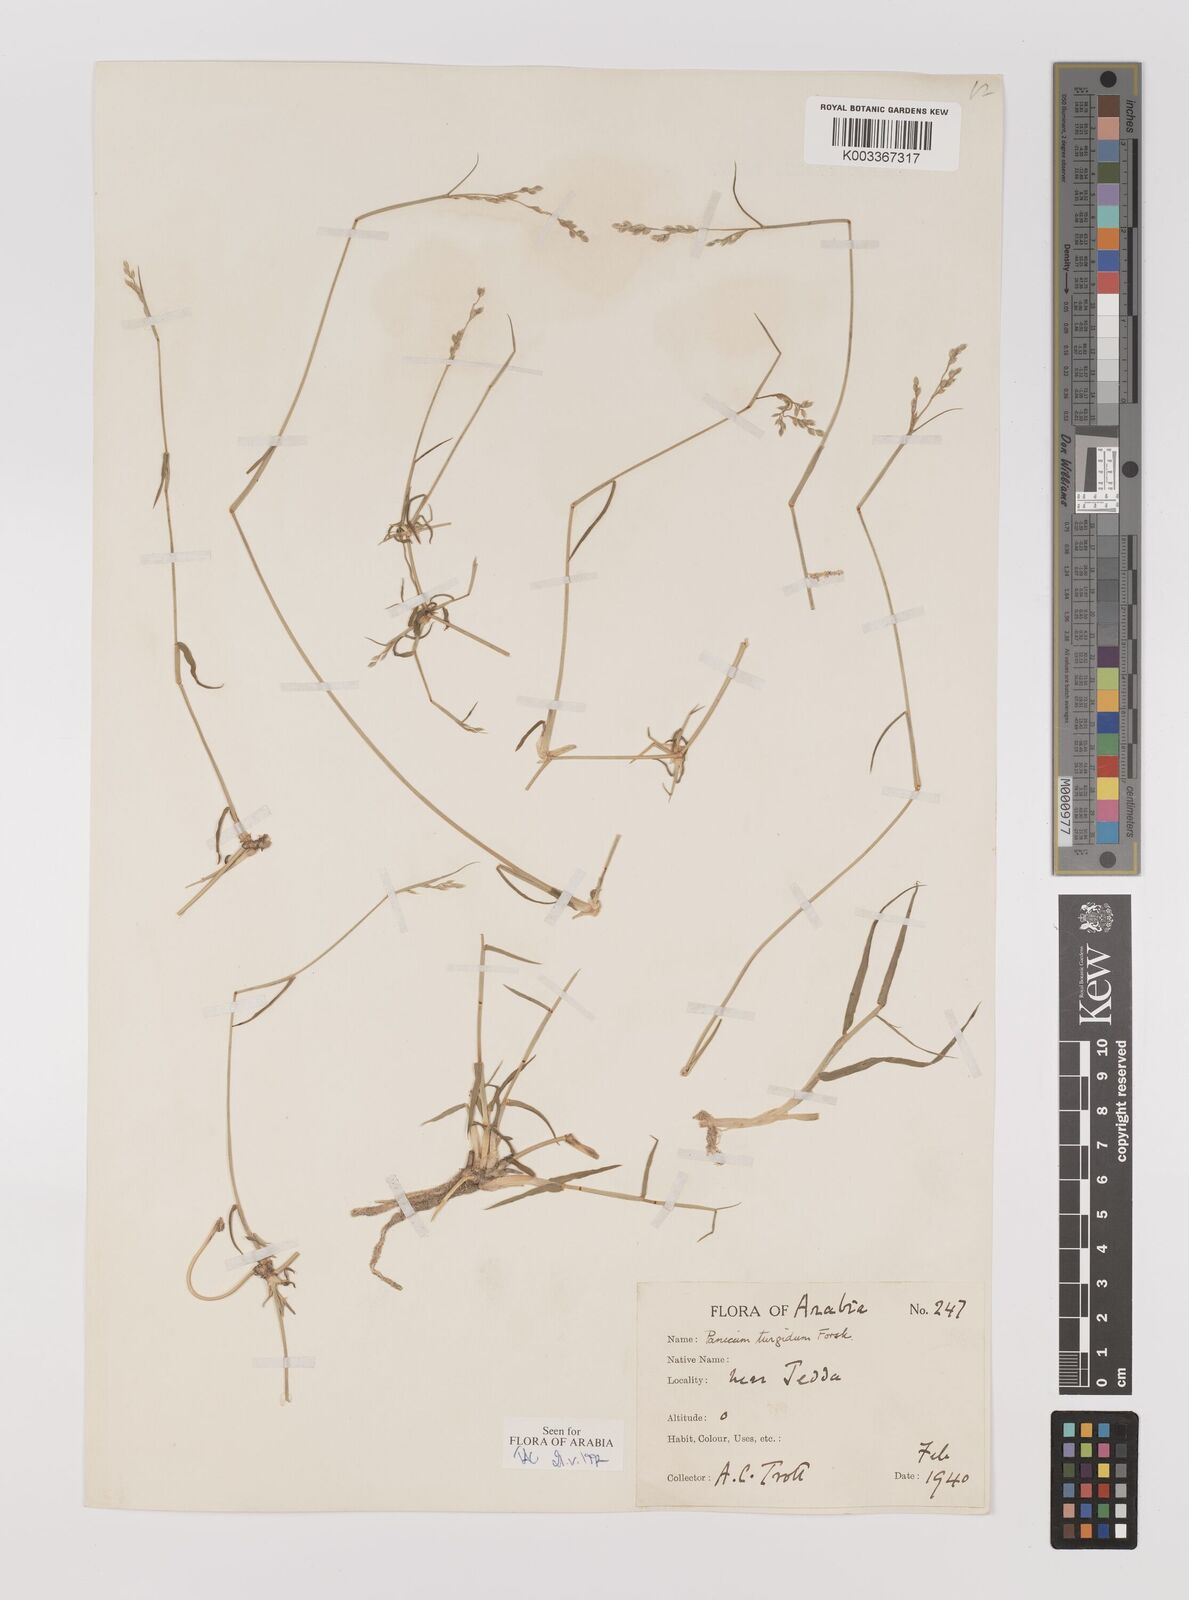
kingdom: Plantae
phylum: Tracheophyta
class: Liliopsida
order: Poales
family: Poaceae
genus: Panicum
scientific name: Panicum turgidum
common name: Desert grass
